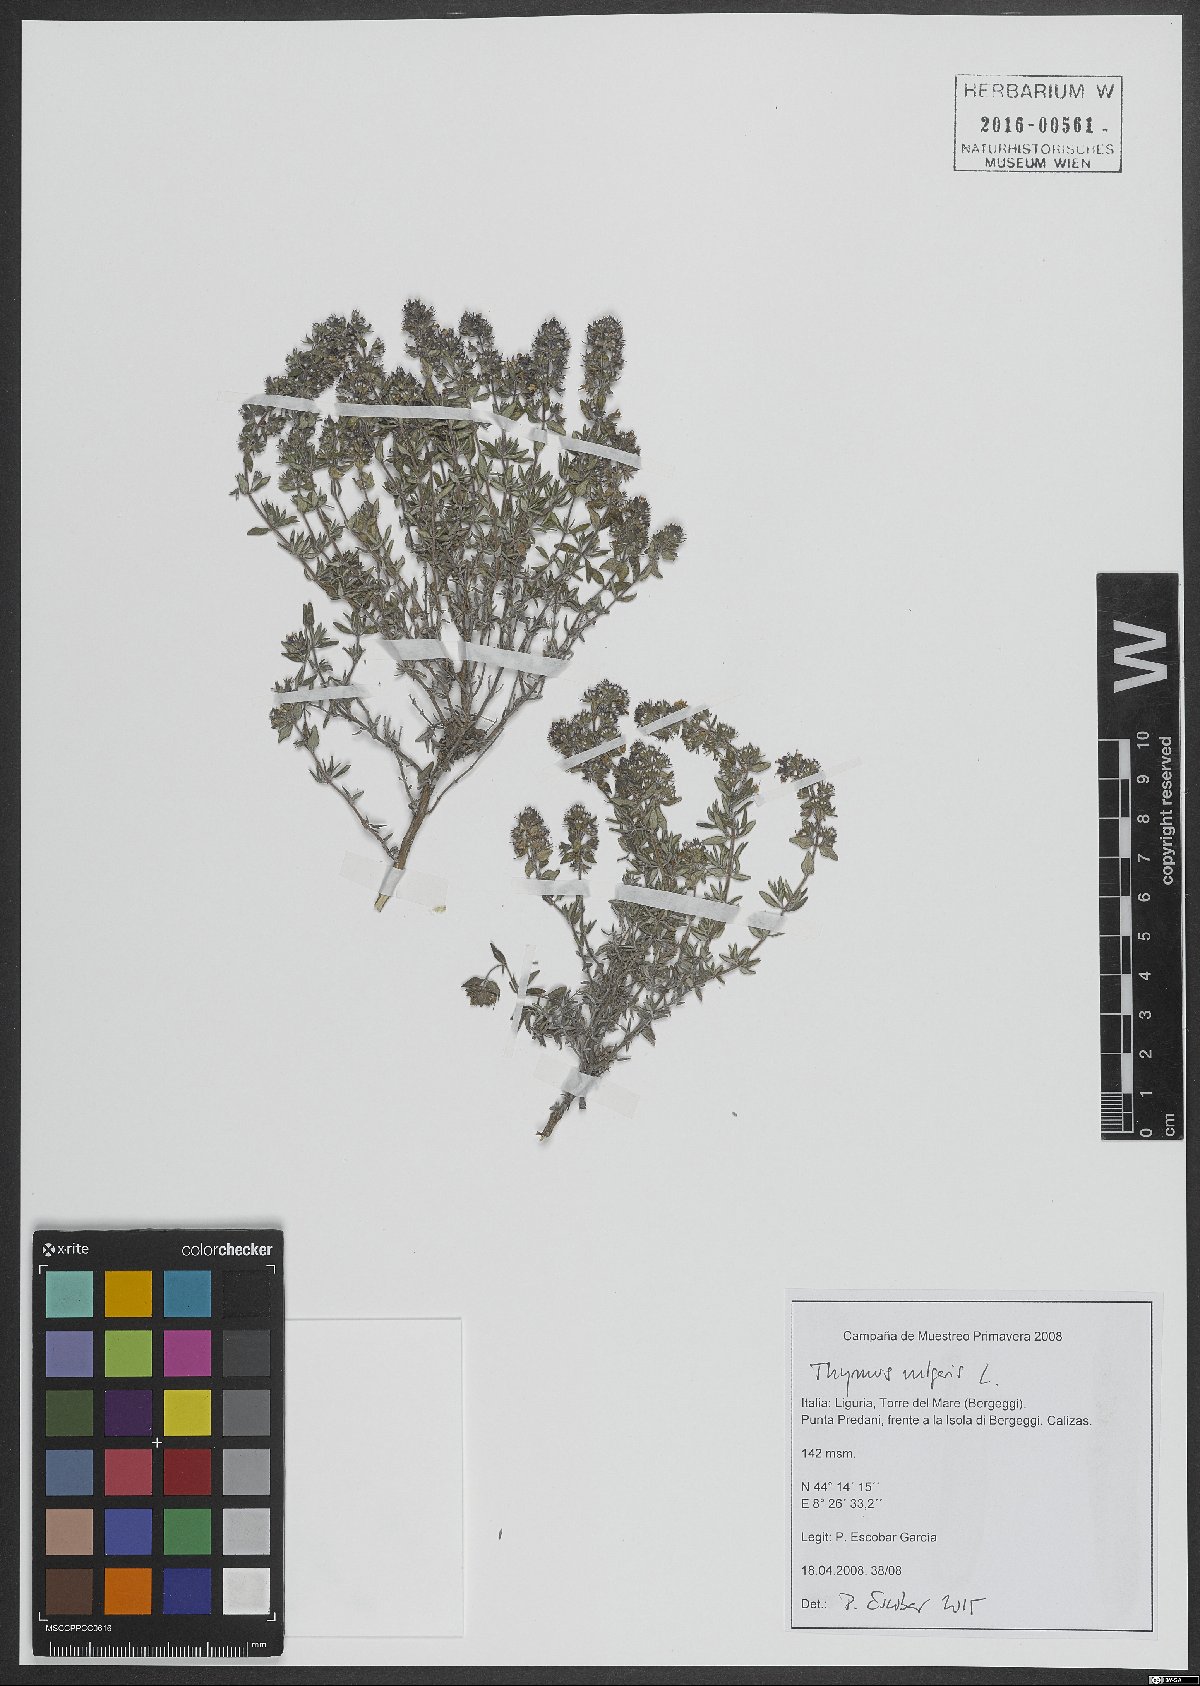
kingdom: Plantae
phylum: Tracheophyta
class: Magnoliopsida
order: Lamiales
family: Lamiaceae
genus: Thymus
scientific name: Thymus vulgaris
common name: Garden thyme
